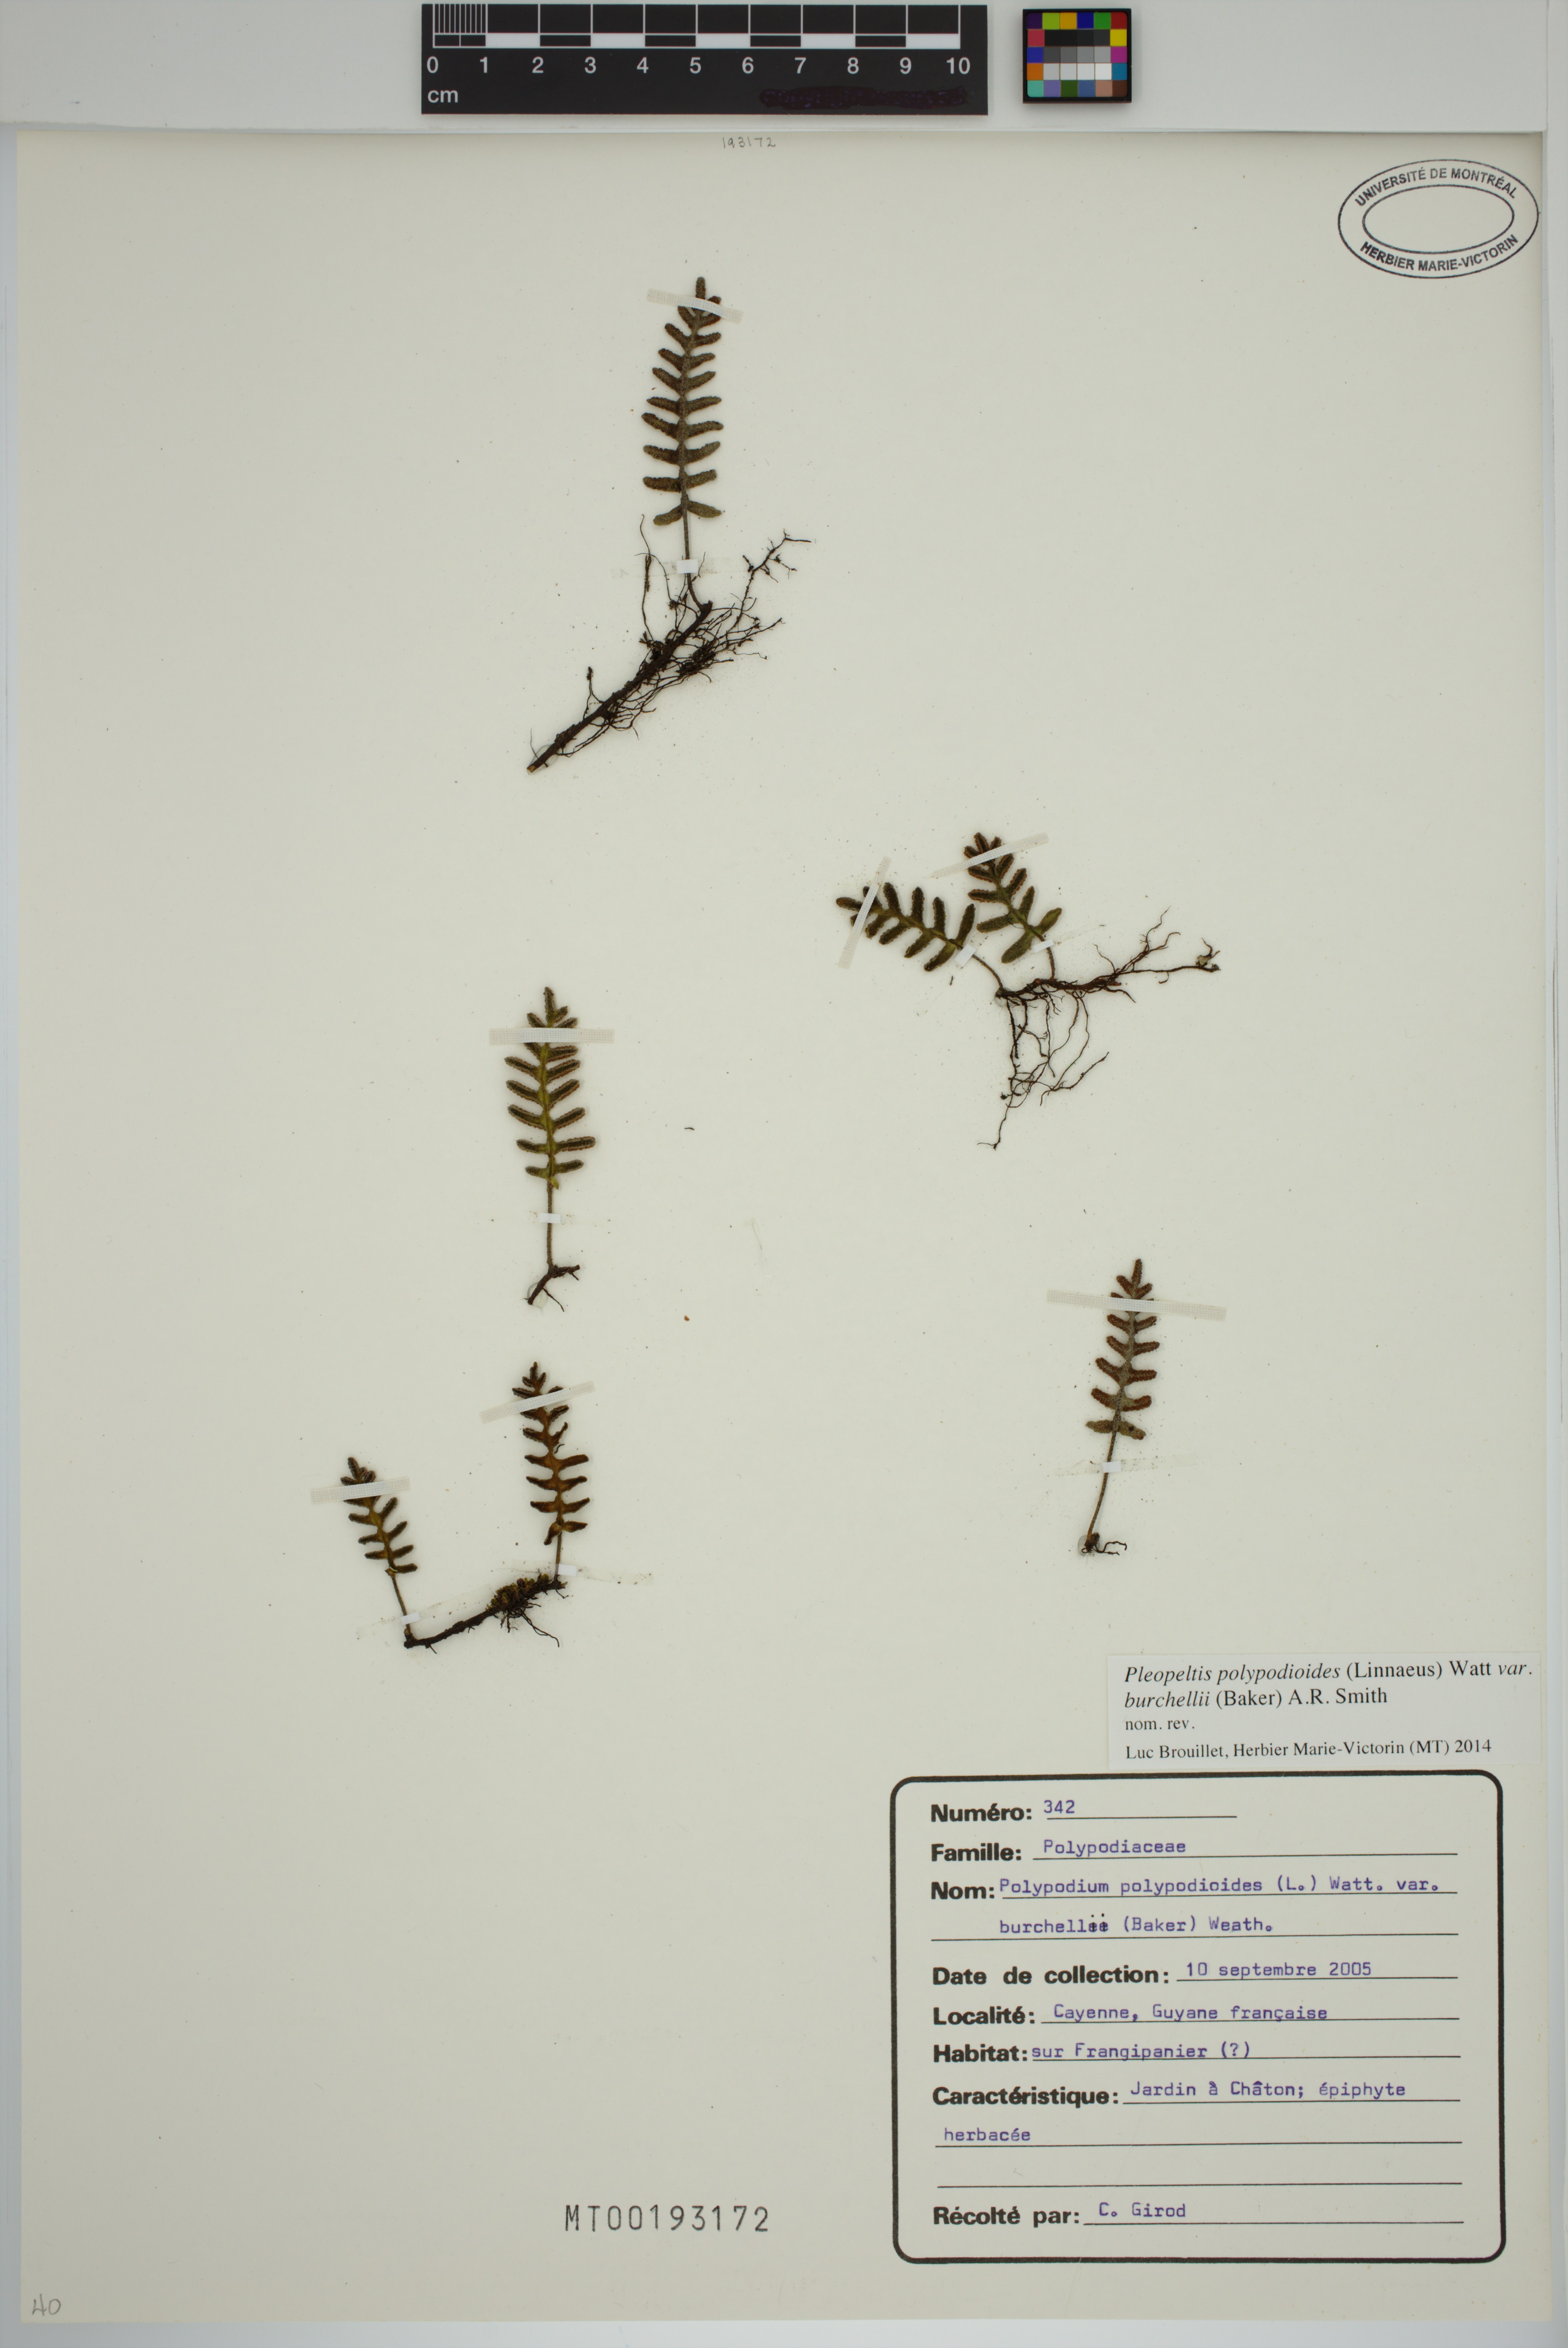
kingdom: Plantae
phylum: Tracheophyta
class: Polypodiopsida
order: Polypodiales
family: Polypodiaceae
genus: Pleopeltis
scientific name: Pleopeltis burchellii
